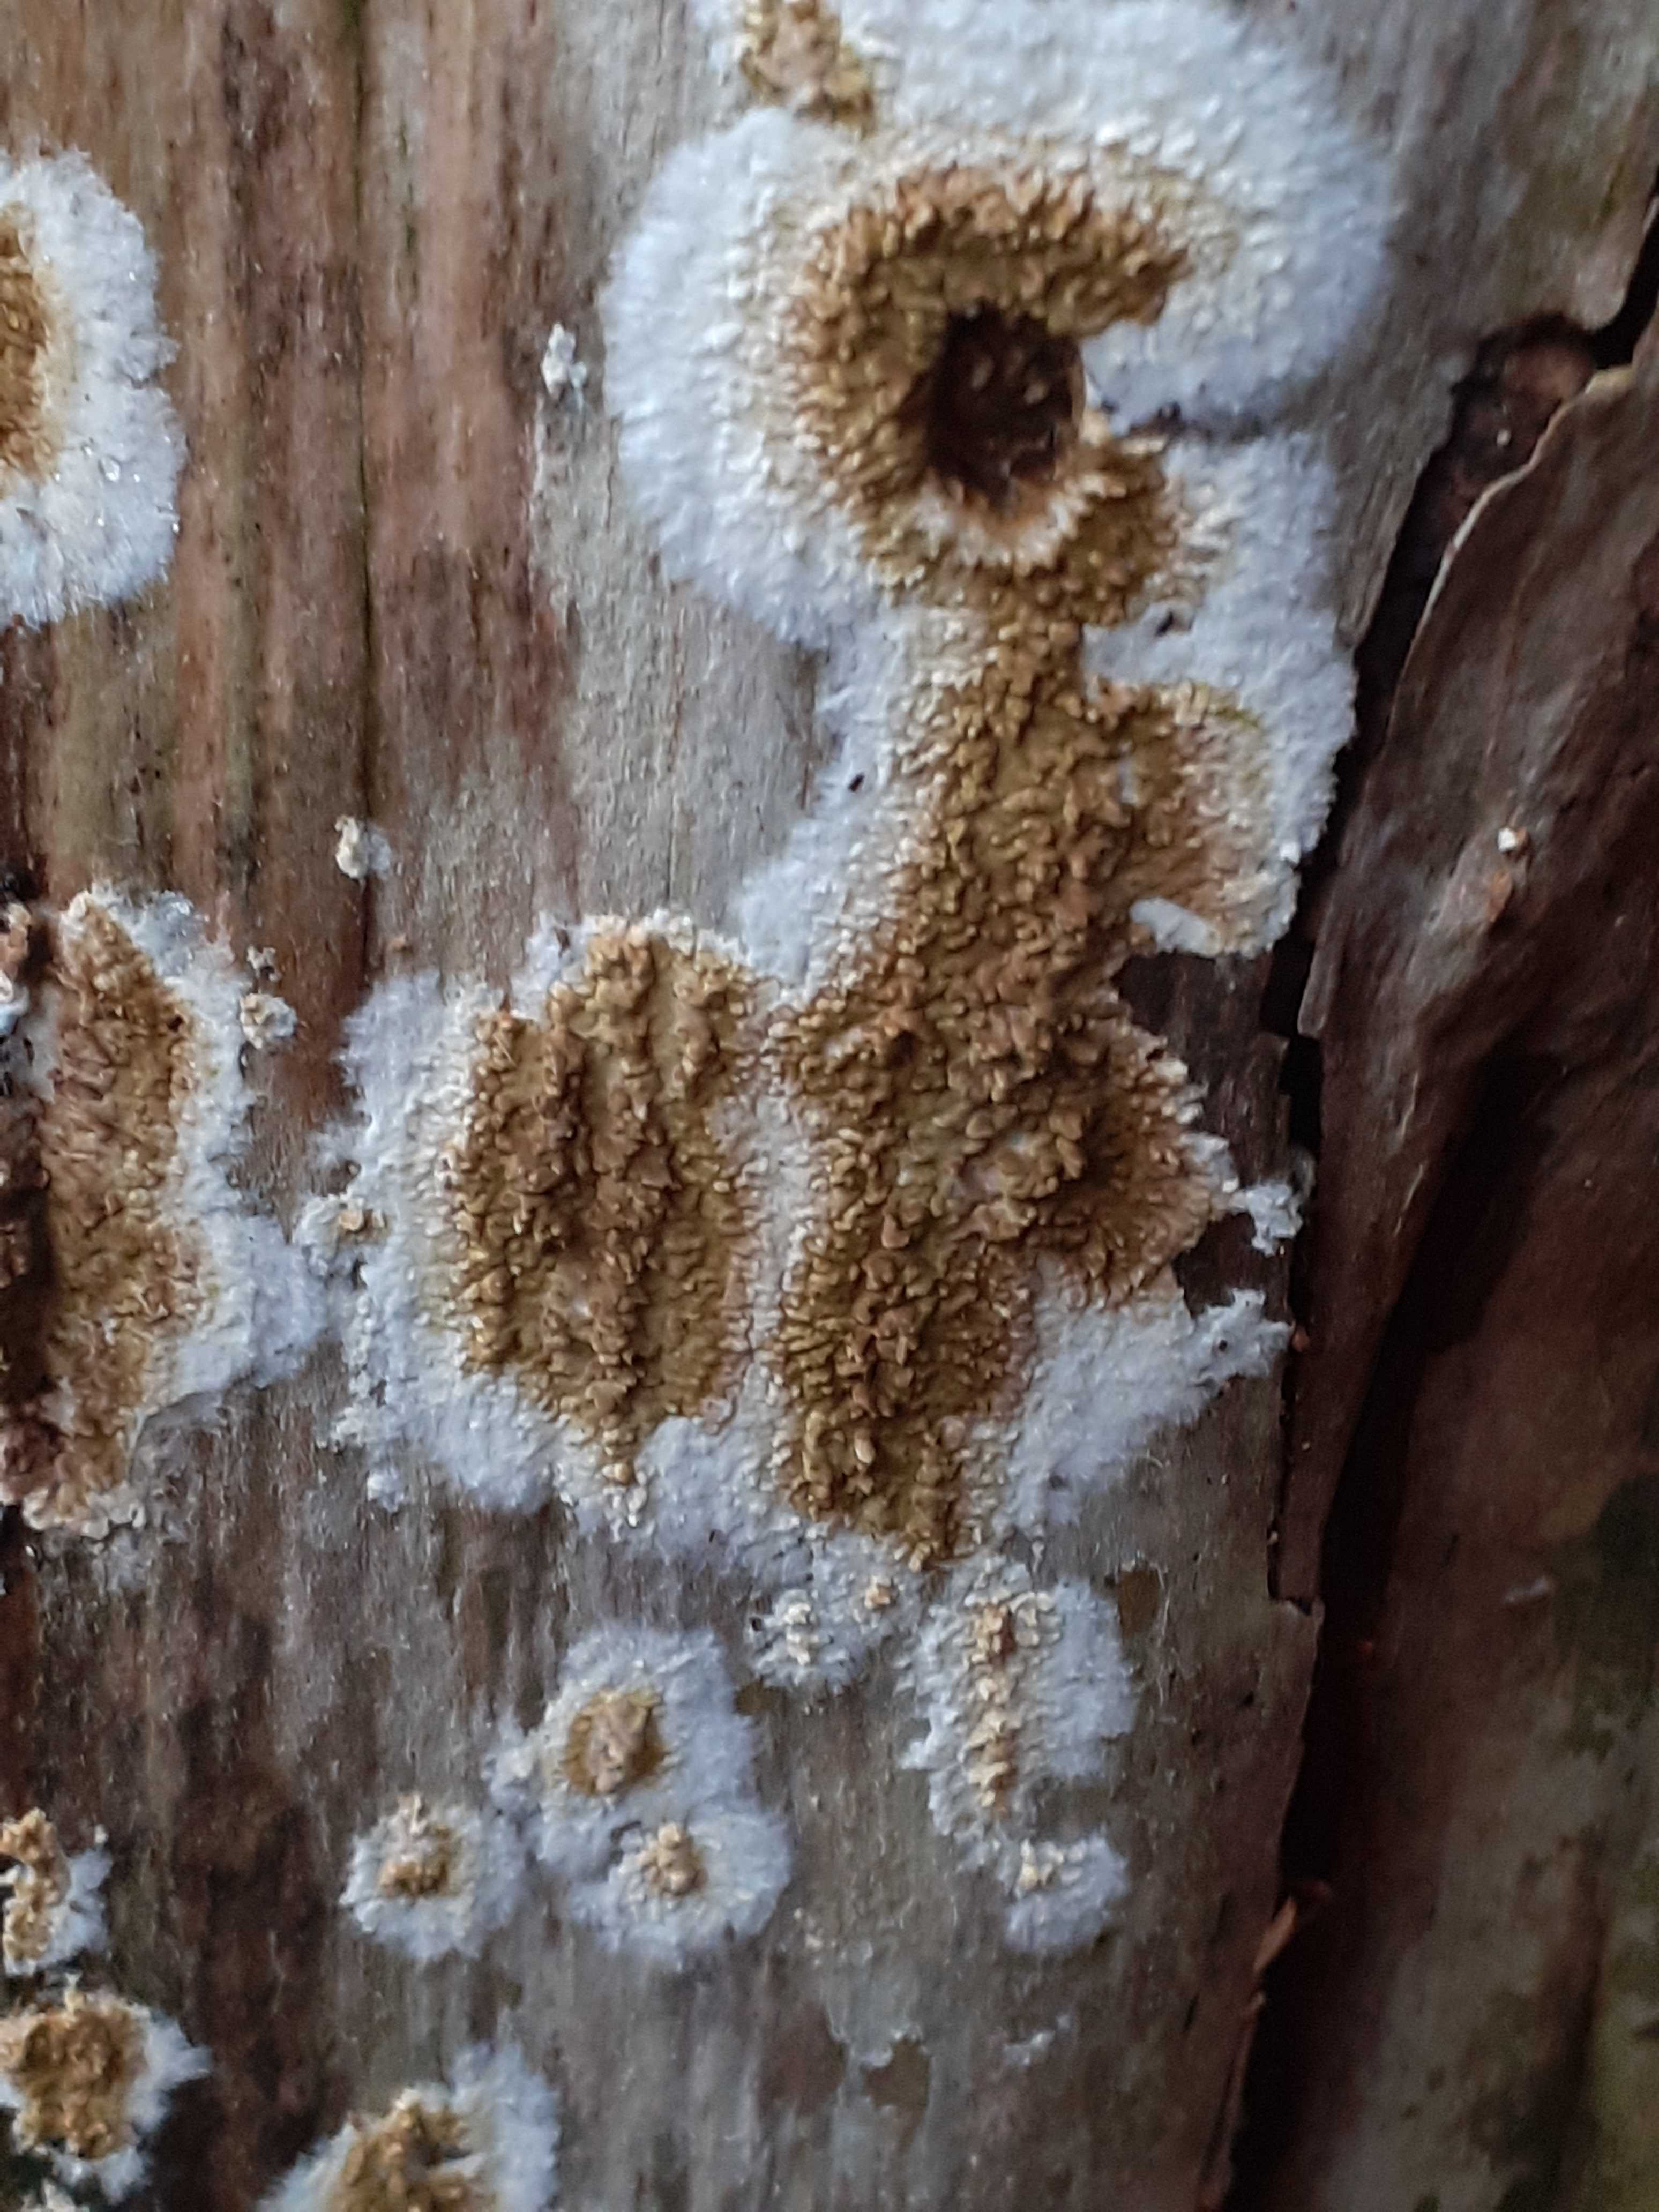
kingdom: Fungi
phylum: Basidiomycota
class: Agaricomycetes
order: Boletales
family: Serpulaceae
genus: Serpula
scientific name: Serpula himantioides
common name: tyndkødet hussvamp
